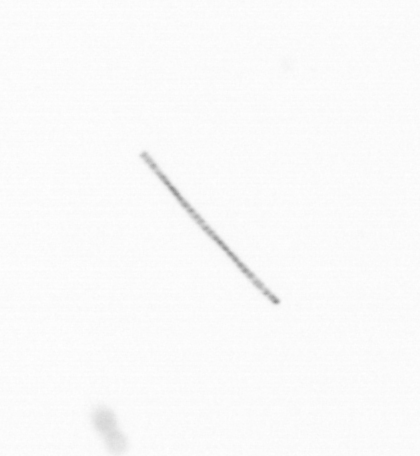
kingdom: Chromista
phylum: Ochrophyta
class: Bacillariophyceae
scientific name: Bacillariophyceae
